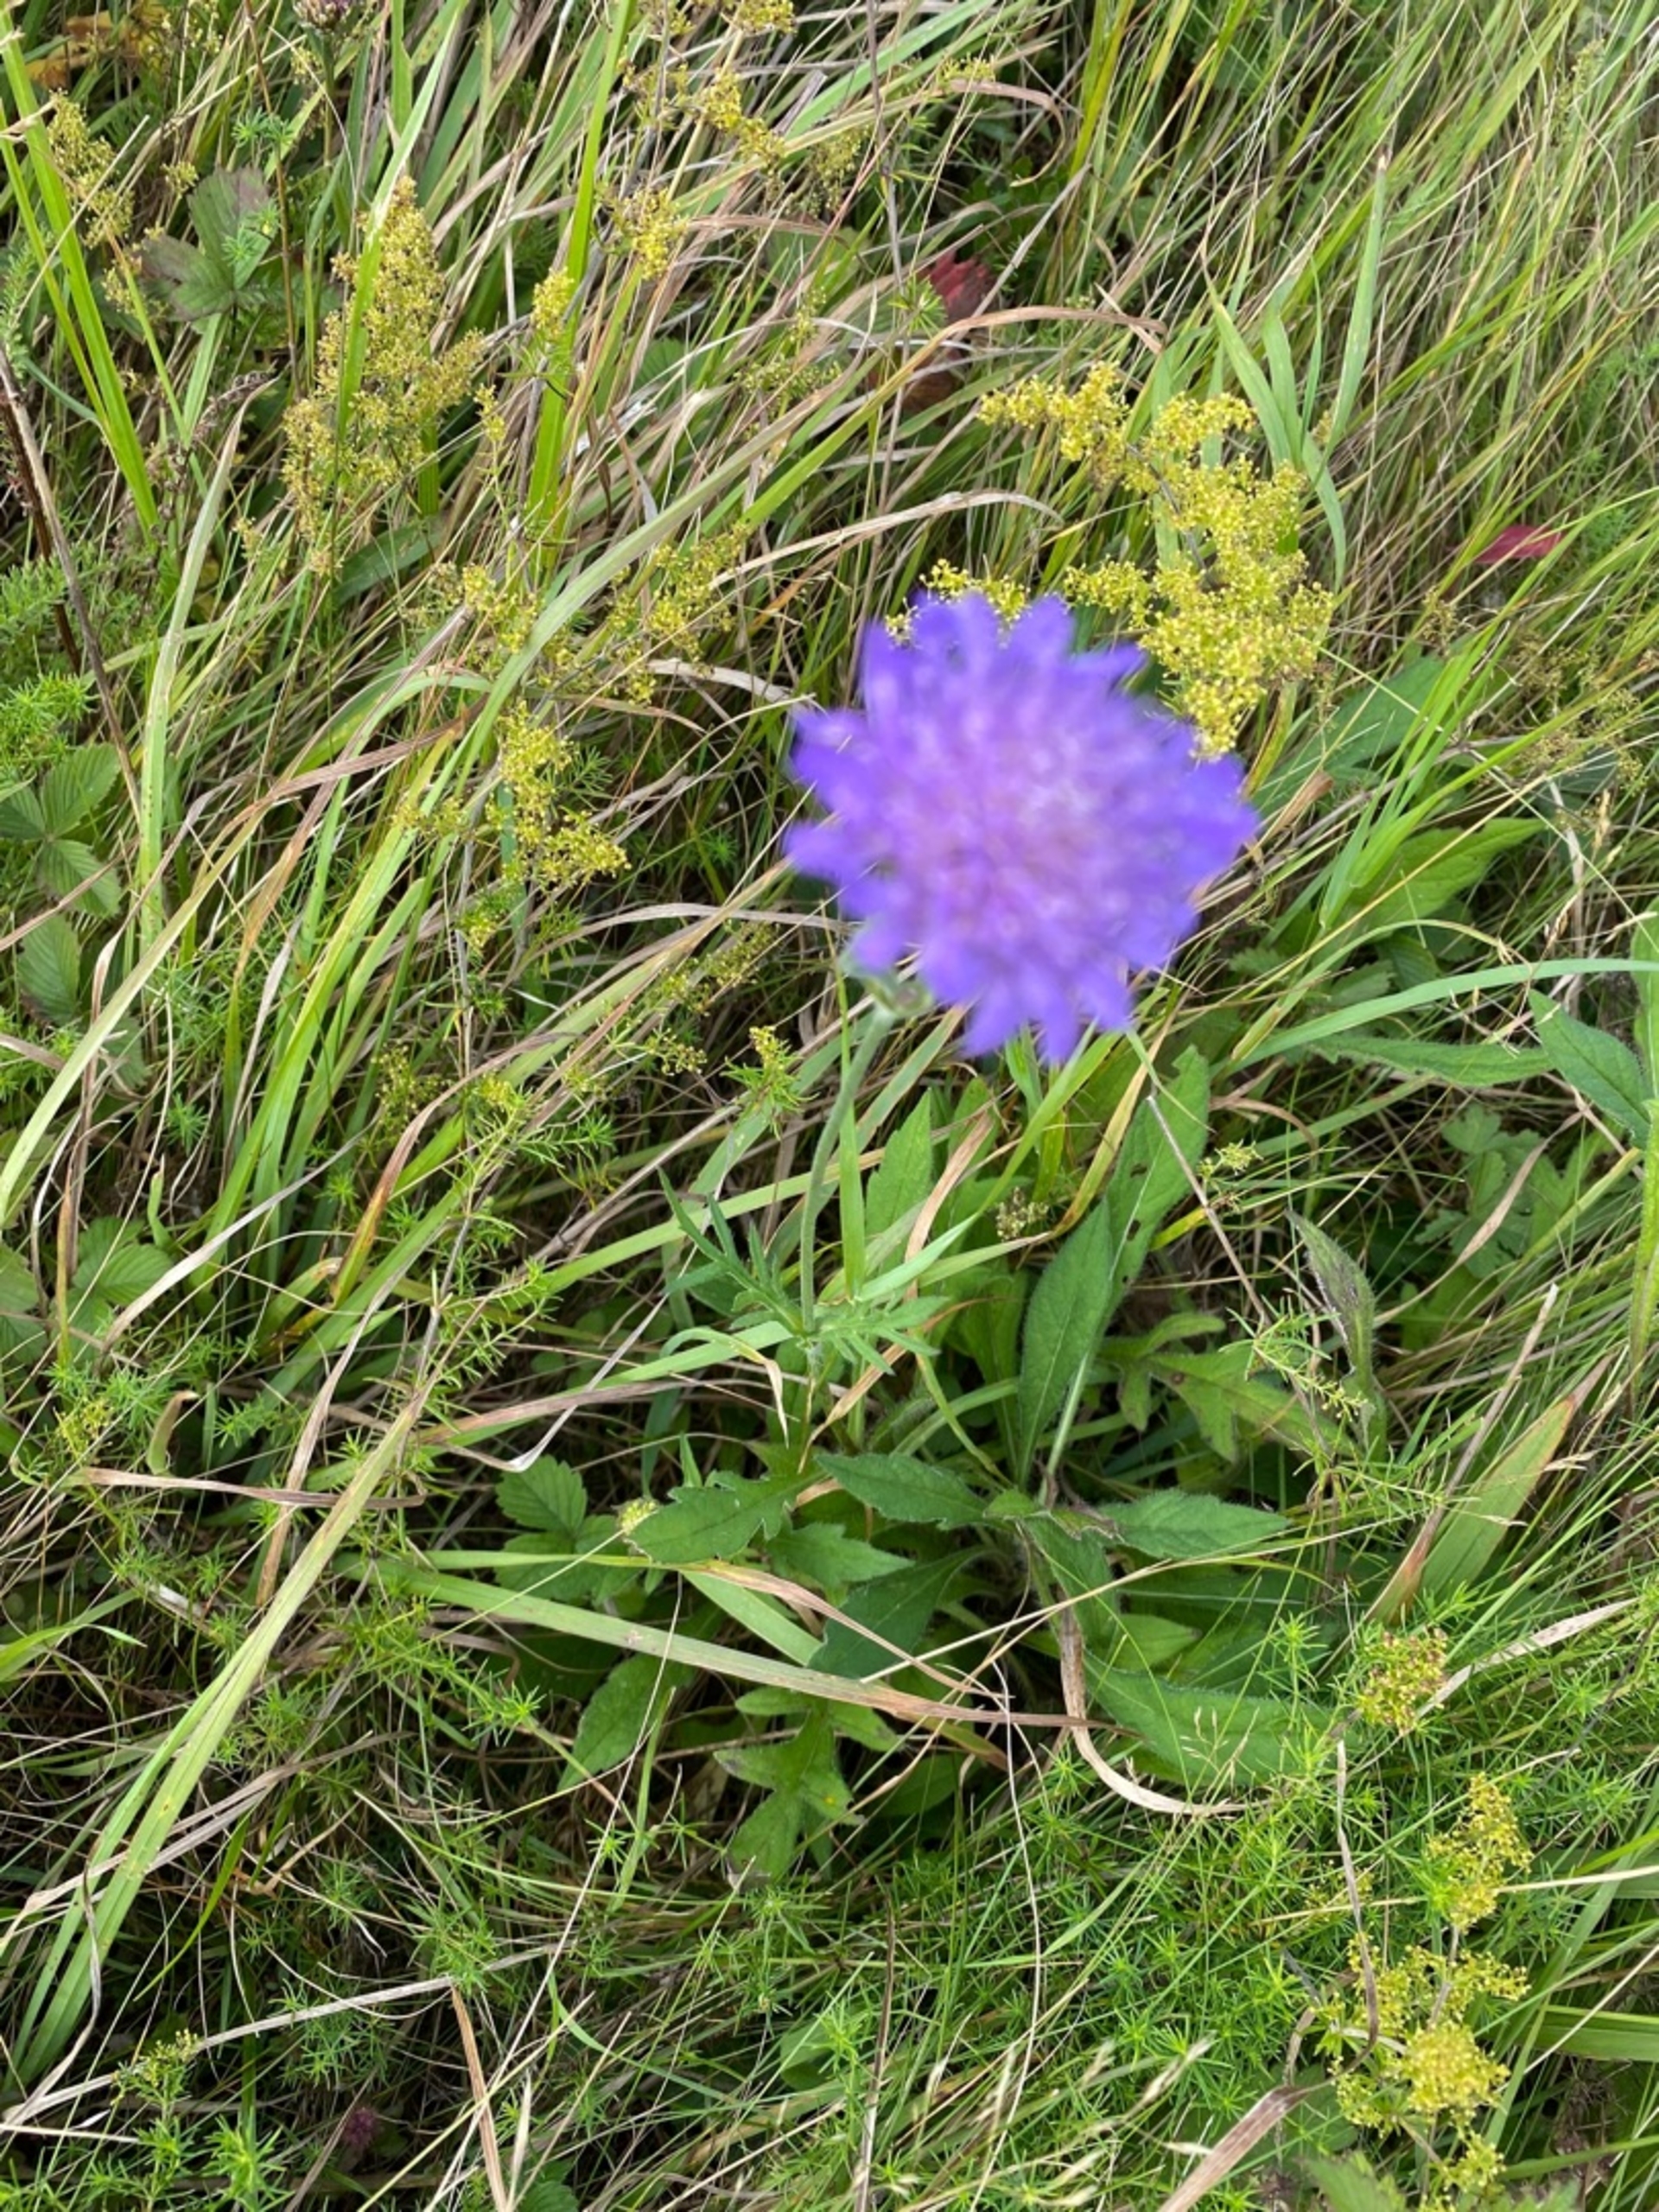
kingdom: Plantae
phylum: Tracheophyta
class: Magnoliopsida
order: Dipsacales
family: Caprifoliaceae
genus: Knautia
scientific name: Knautia arvensis
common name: Blåhat
